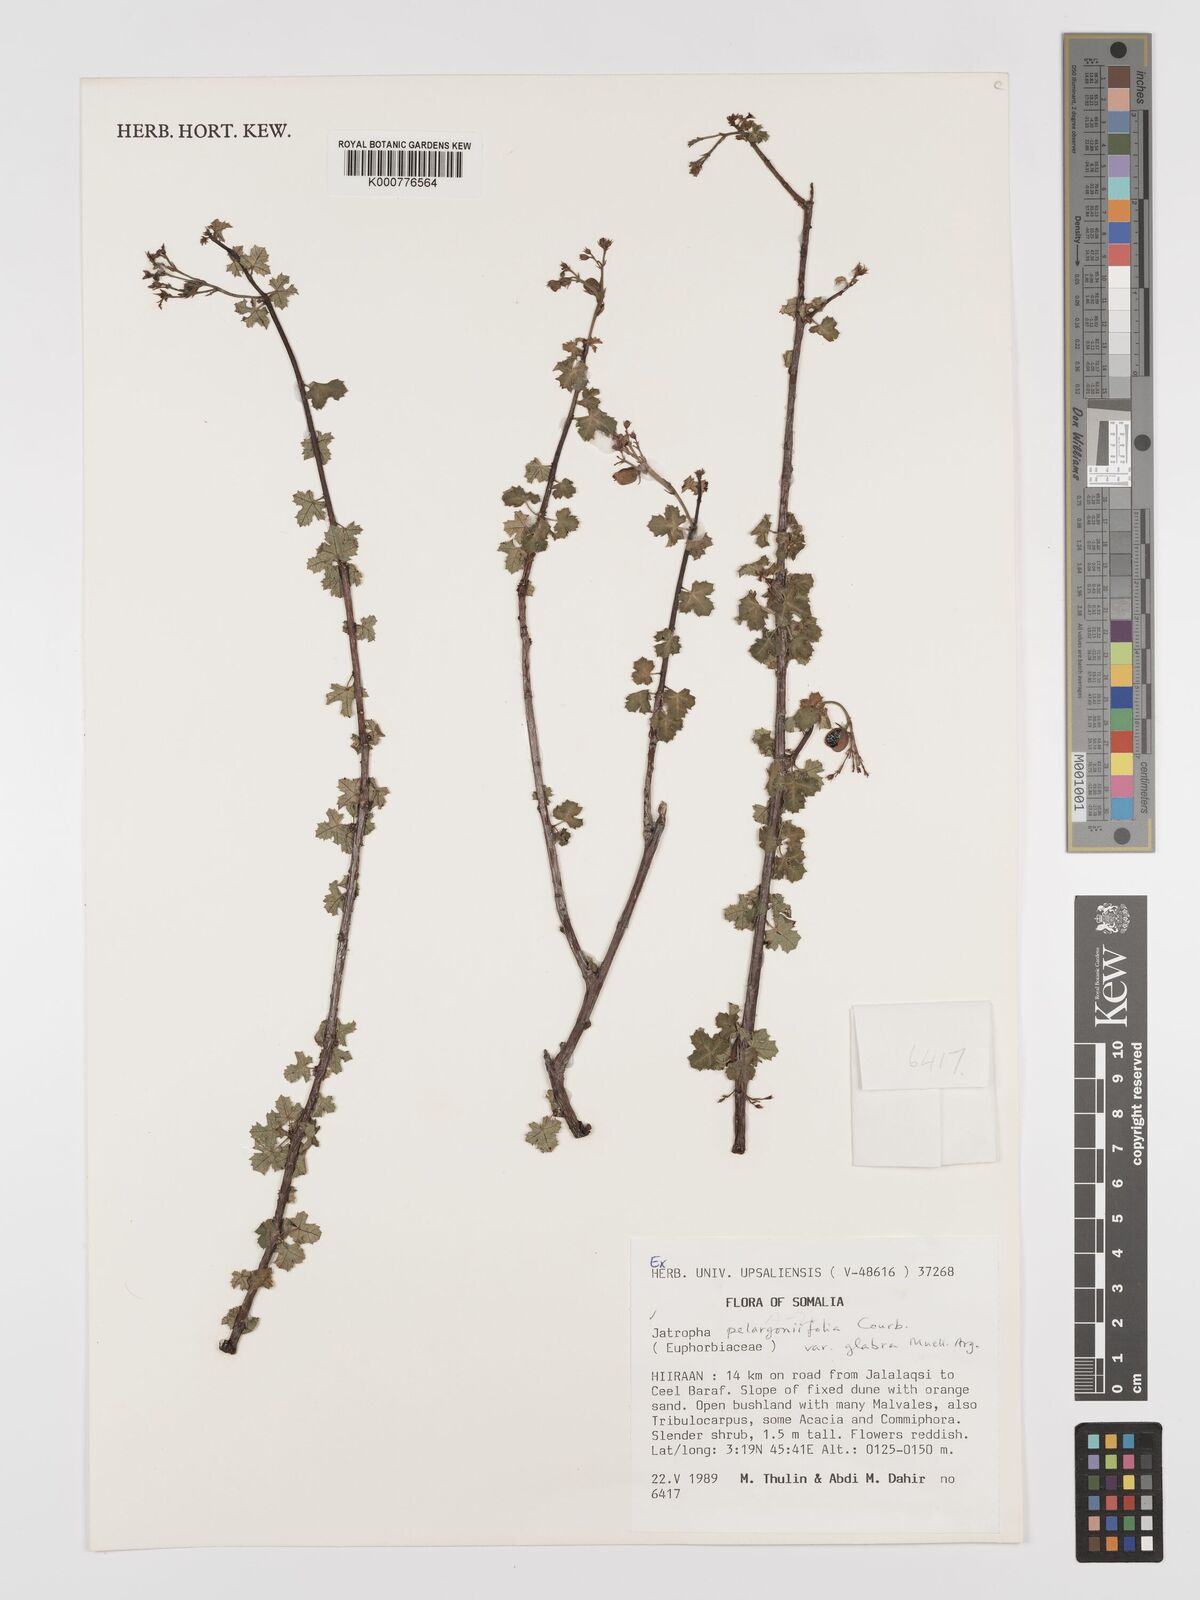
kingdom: Plantae
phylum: Tracheophyta
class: Magnoliopsida
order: Malpighiales
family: Euphorbiaceae
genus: Jatropha
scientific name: Jatropha pelargoniifolia
